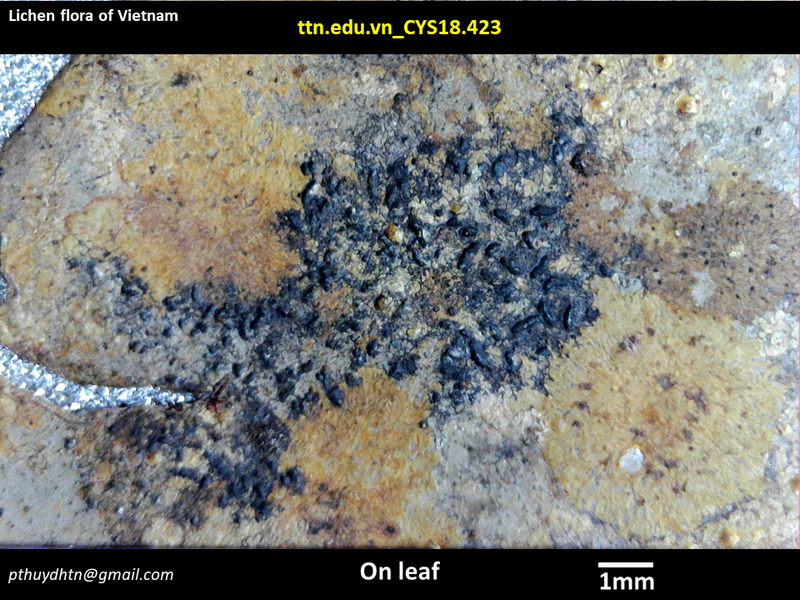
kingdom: Fungi
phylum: Ascomycota
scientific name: Ascomycota
